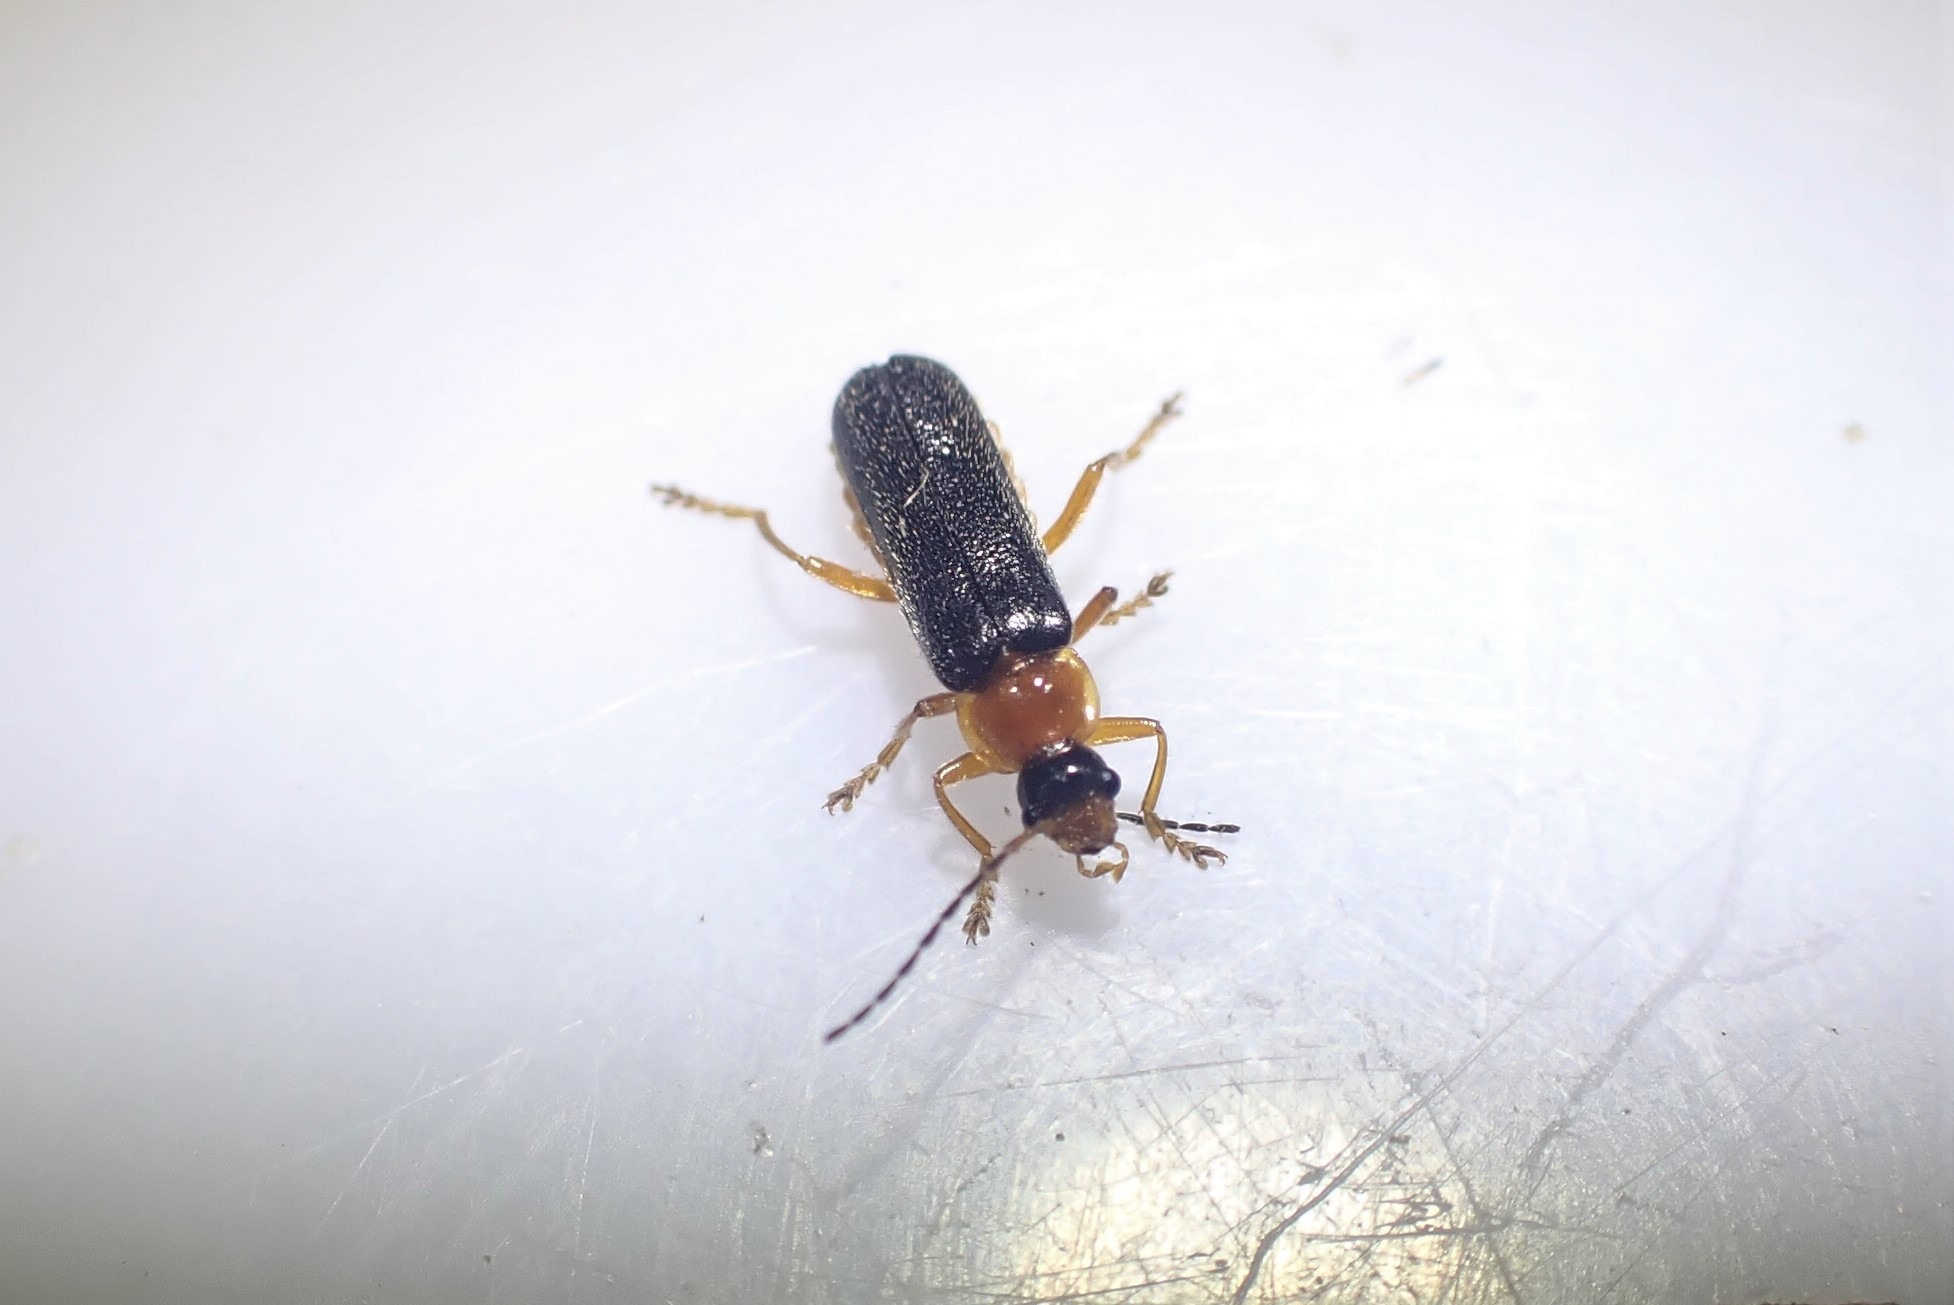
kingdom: Animalia
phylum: Arthropoda
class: Insecta
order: Coleoptera
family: Cantharidae
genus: Cantharis
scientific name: Cantharis nigra
